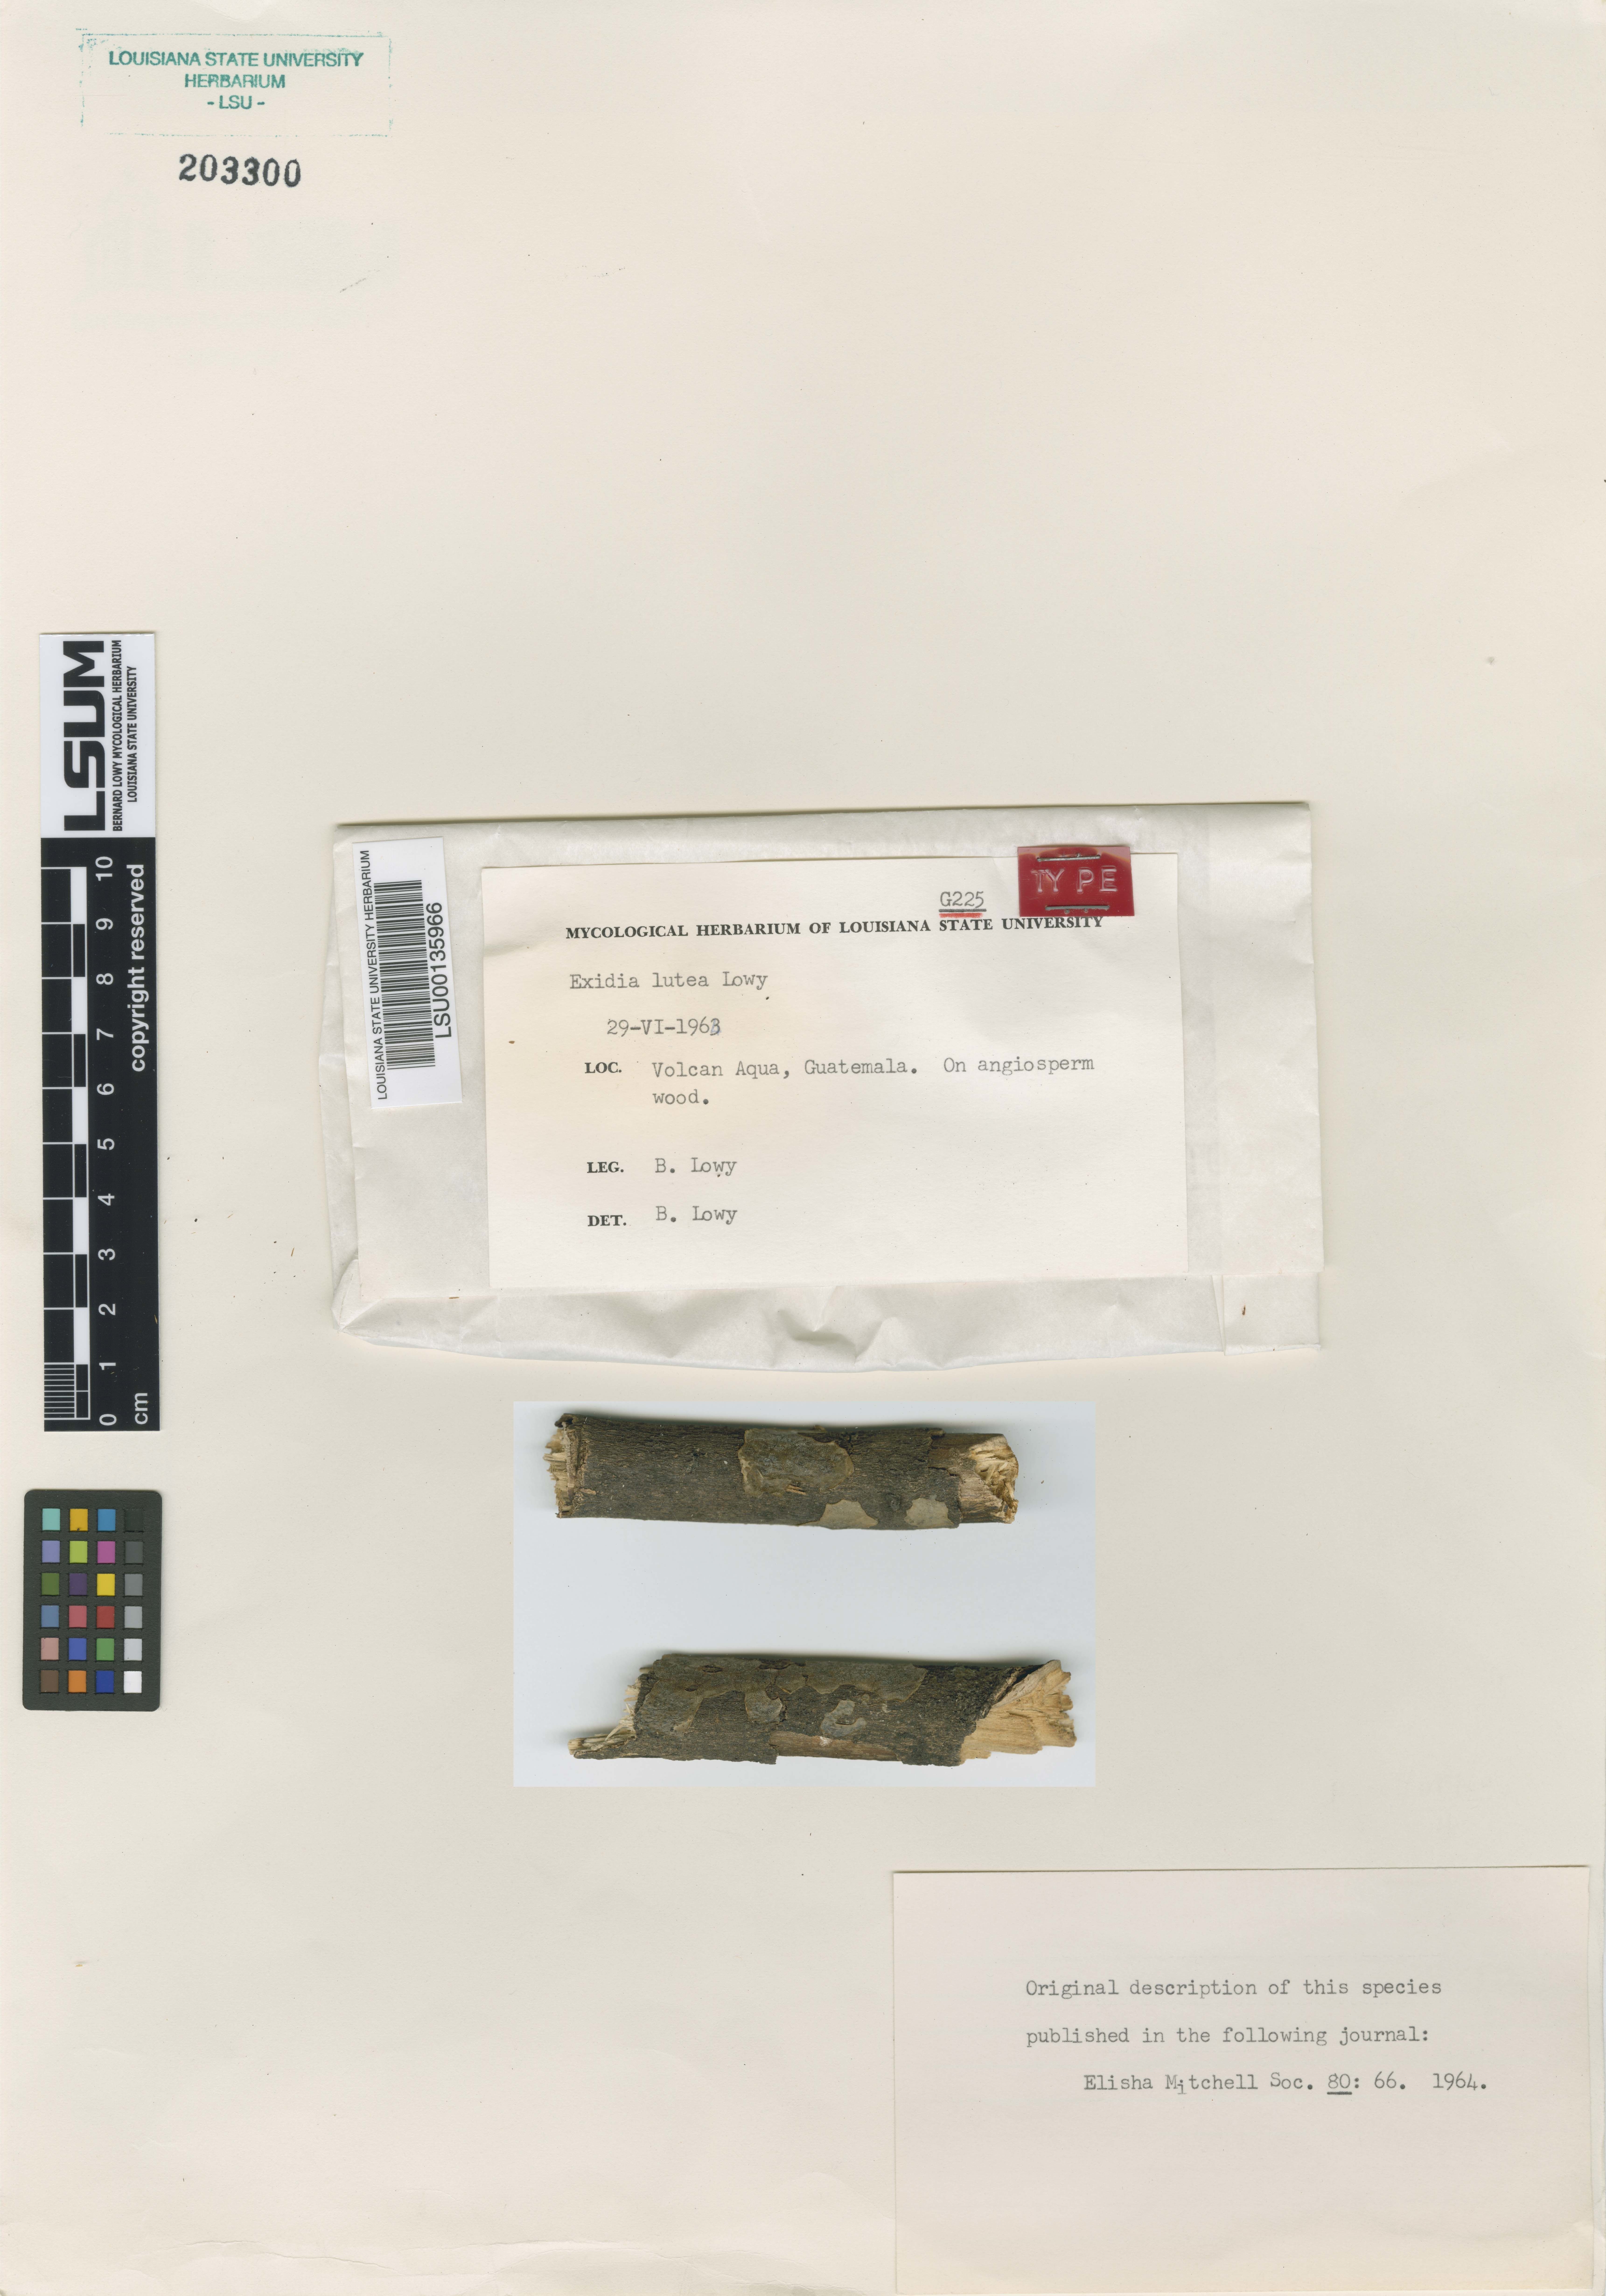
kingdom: Fungi
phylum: Basidiomycota
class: Agaricomycetes
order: Auriculariales
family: Auriculariaceae
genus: Exidia
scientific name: Exidia lutea
